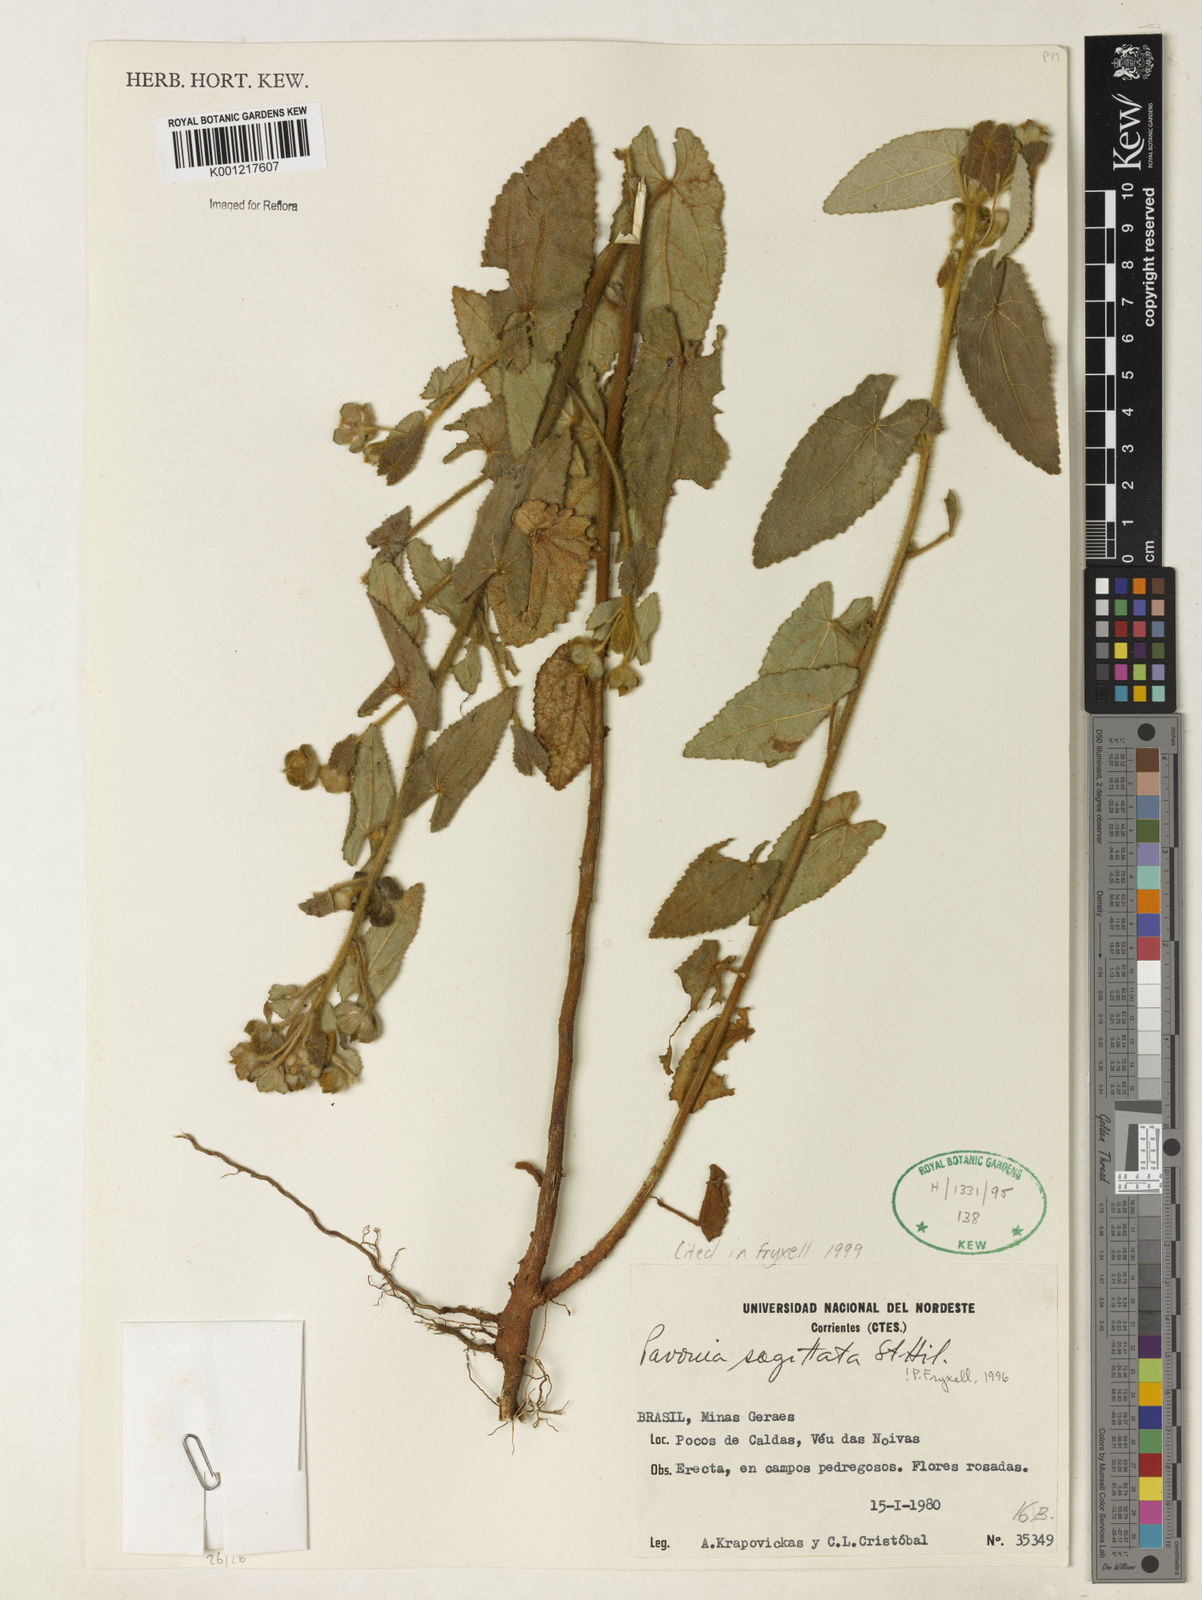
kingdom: Plantae
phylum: Tracheophyta
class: Magnoliopsida
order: Malvales
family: Malvaceae
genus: Pavonia
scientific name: Pavonia
